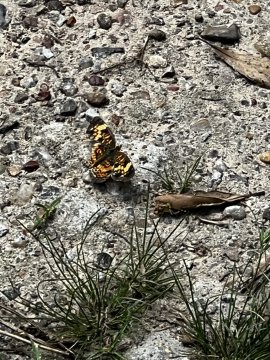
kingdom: Animalia
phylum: Arthropoda
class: Insecta
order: Lepidoptera
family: Nymphalidae
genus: Chlosyne
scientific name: Chlosyne nycteis
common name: Silvery Checkerspot
